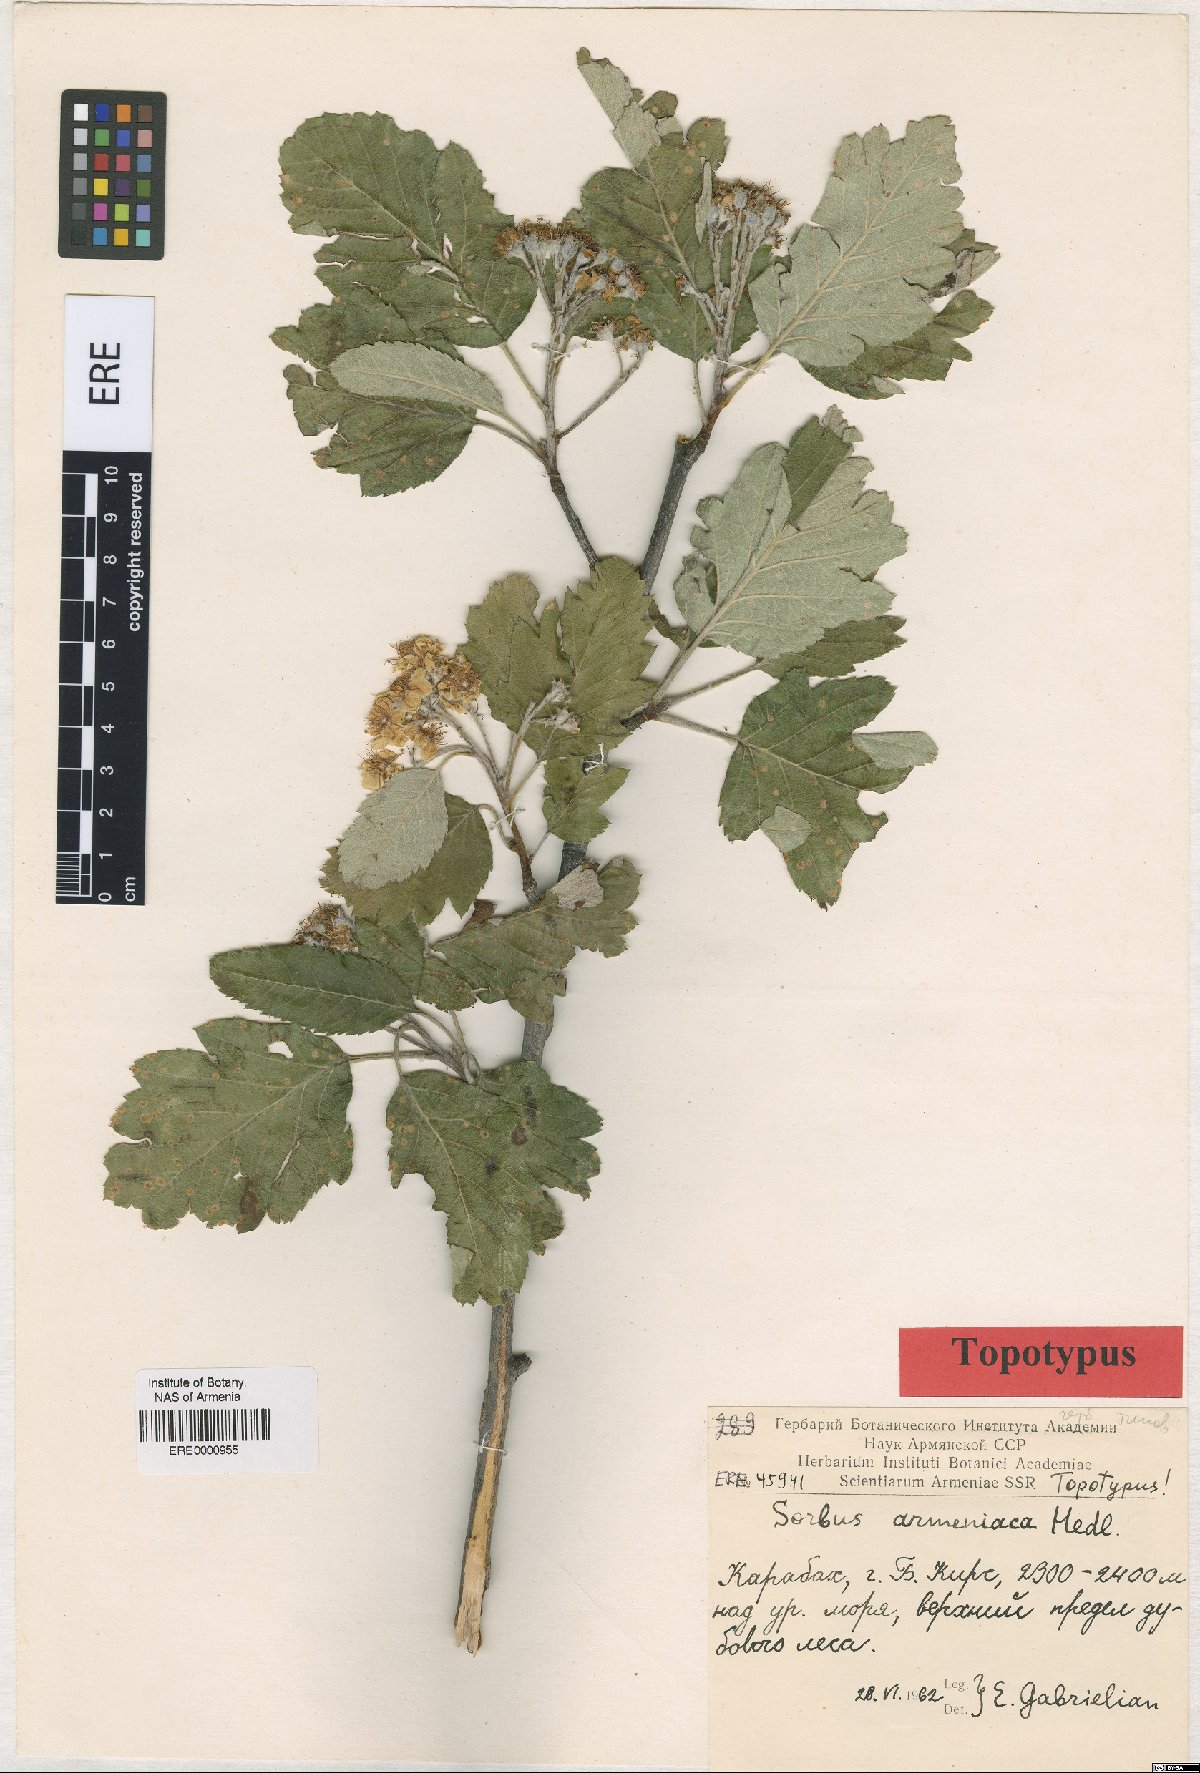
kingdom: Plantae
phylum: Tracheophyta
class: Magnoliopsida
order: Rosales
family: Rosaceae
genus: Hedlundia
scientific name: Hedlundia armeniaca
